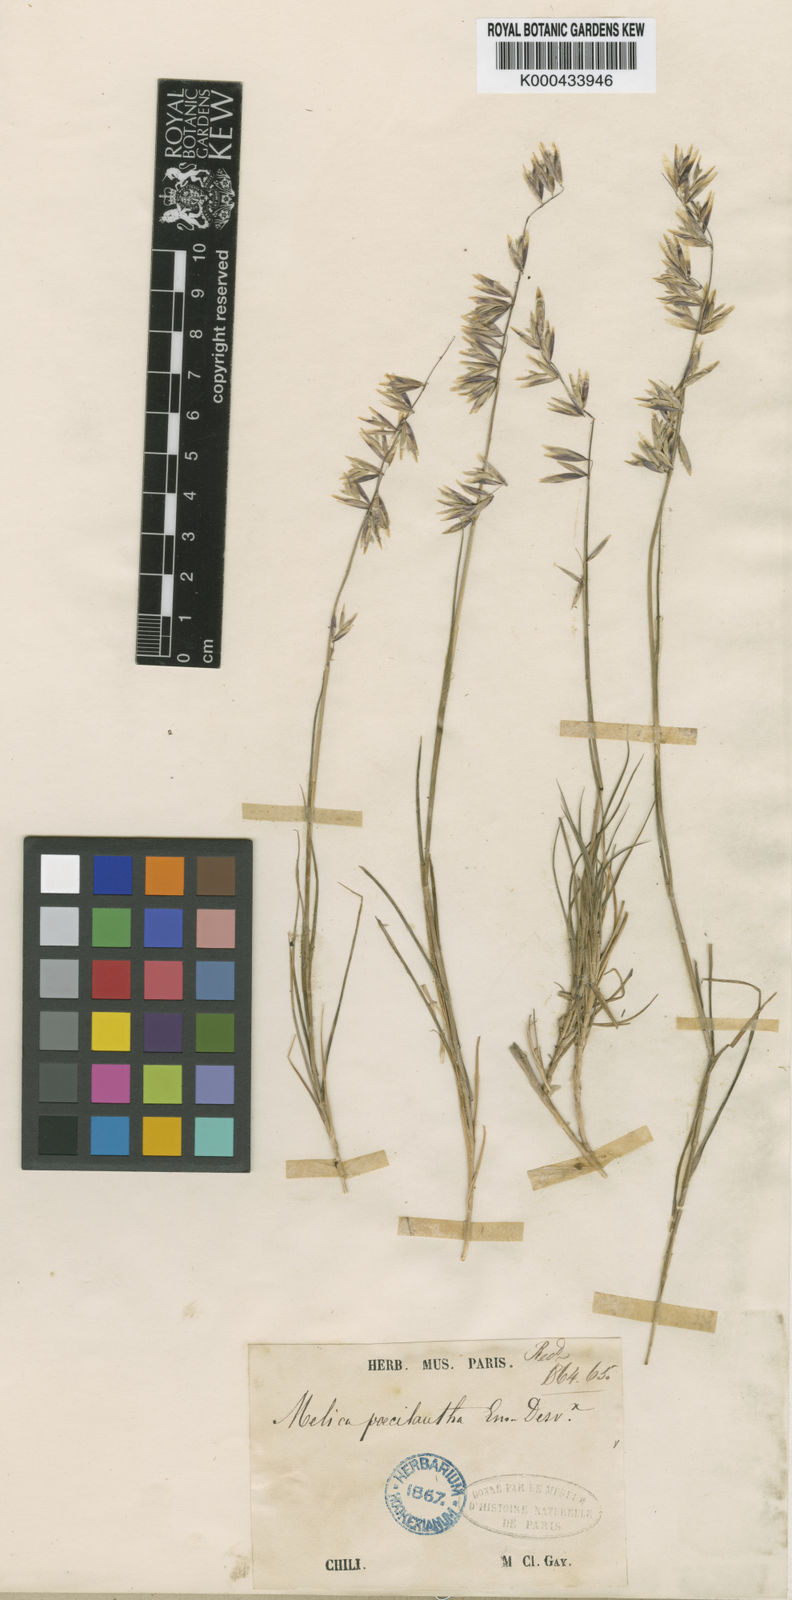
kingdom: Plantae
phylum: Tracheophyta
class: Liliopsida
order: Poales
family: Poaceae
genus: Melica
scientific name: Melica poecilantha
